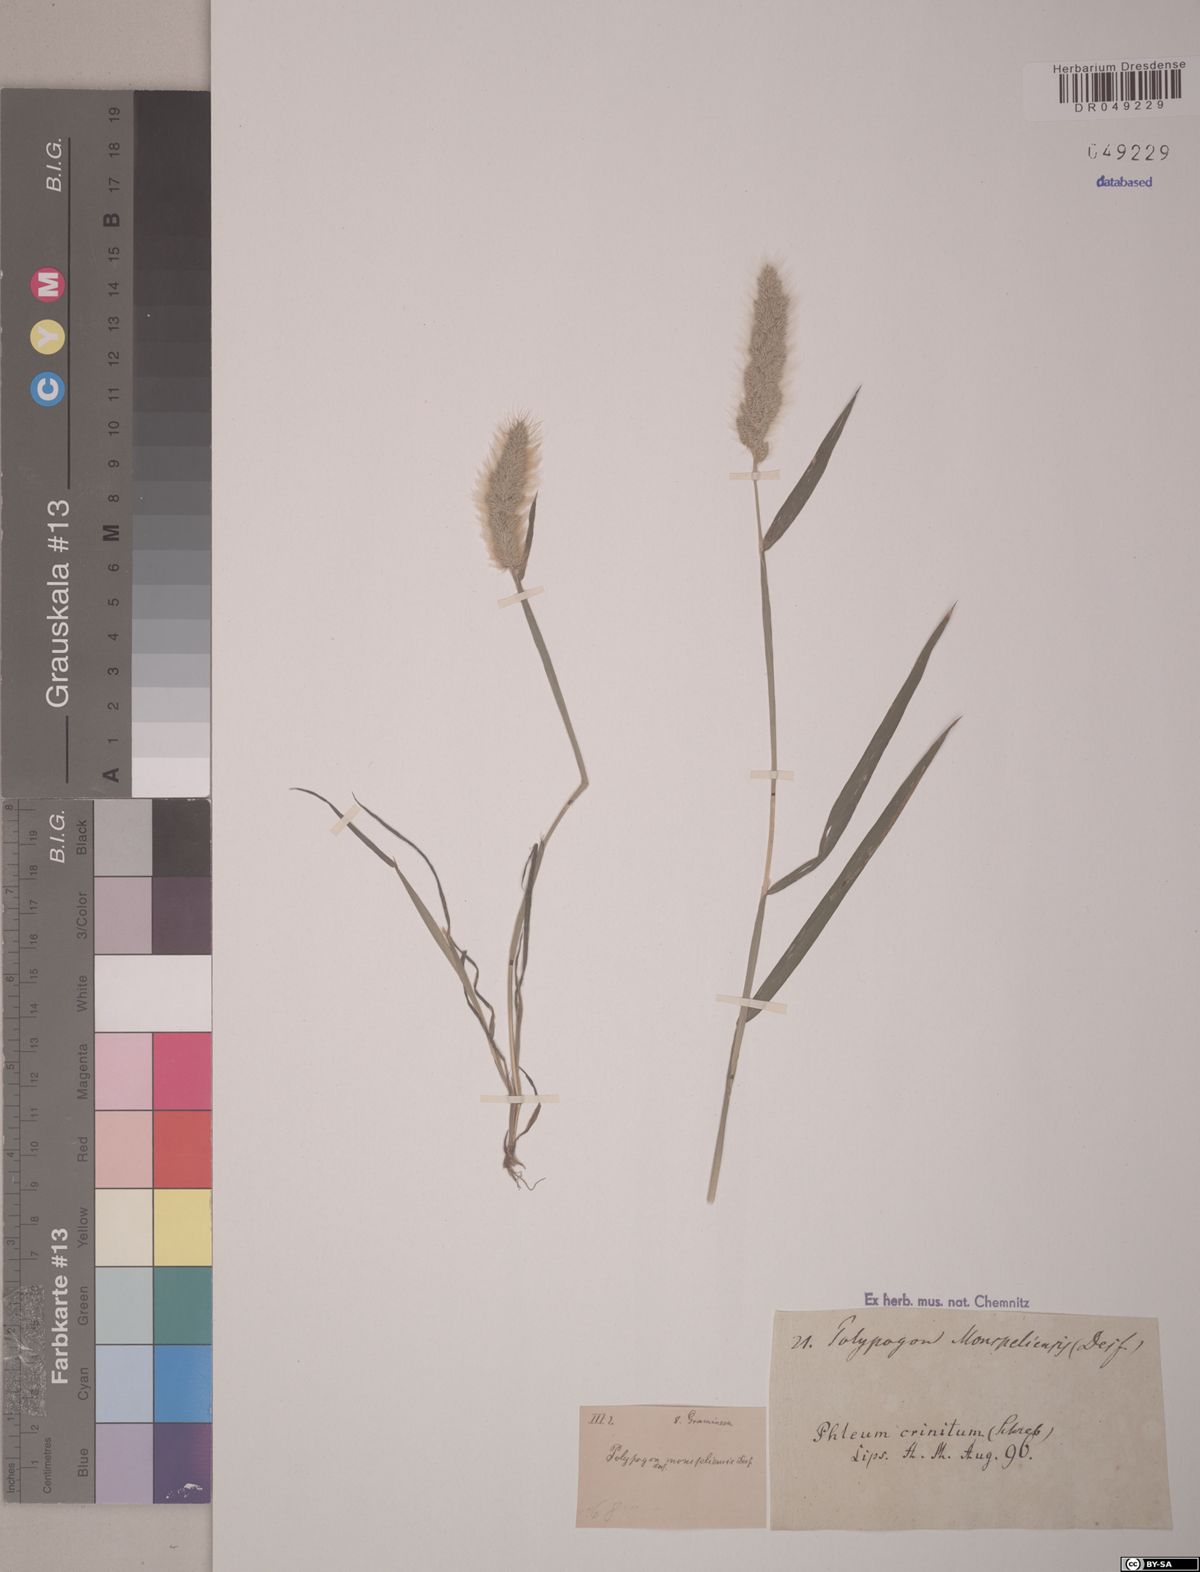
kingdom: Plantae
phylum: Tracheophyta
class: Liliopsida
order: Poales
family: Poaceae
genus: Polypogon
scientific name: Polypogon monspeliensis
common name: Annual rabbitsfoot grass
